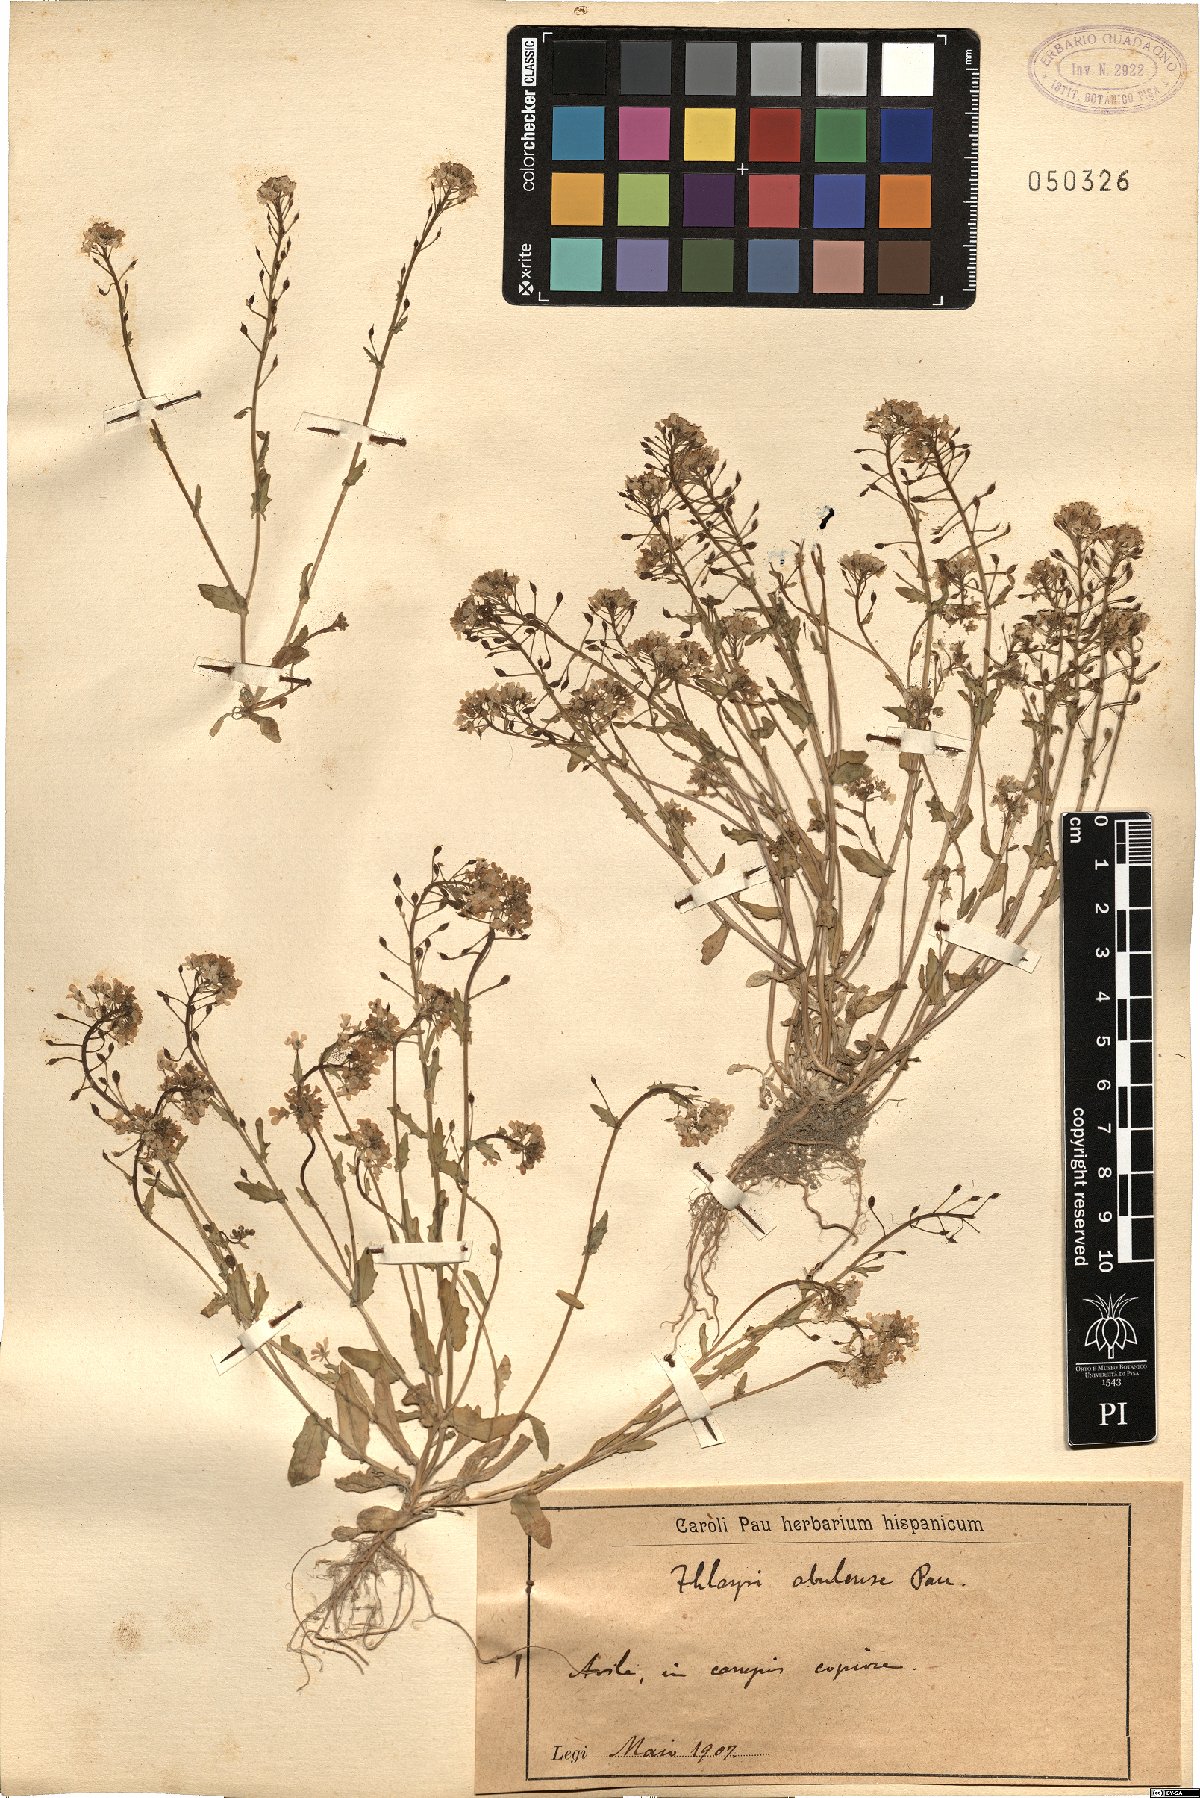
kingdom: Plantae
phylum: Tracheophyta
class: Magnoliopsida
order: Brassicales
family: Brassicaceae
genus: Ionopsidium
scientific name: Ionopsidium abulense
